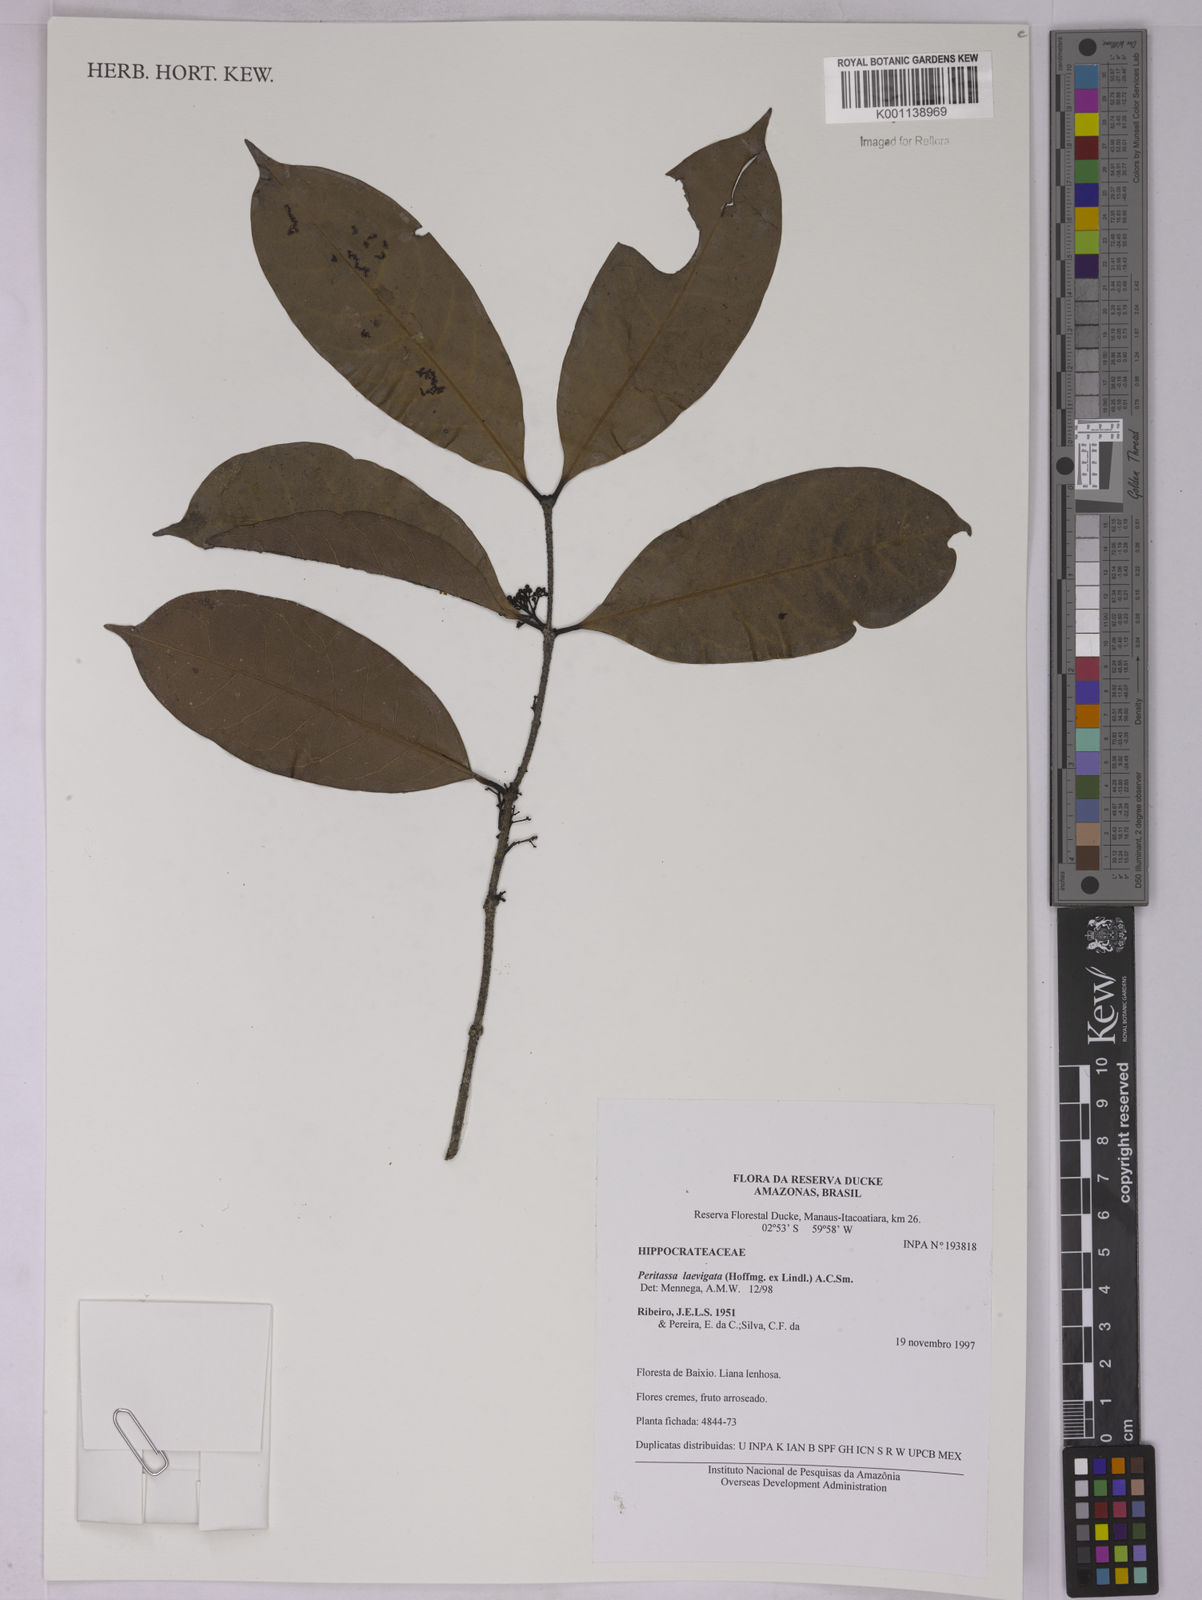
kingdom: Plantae
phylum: Tracheophyta
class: Magnoliopsida
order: Celastrales
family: Celastraceae
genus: Peritassa
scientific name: Peritassa laevigata
